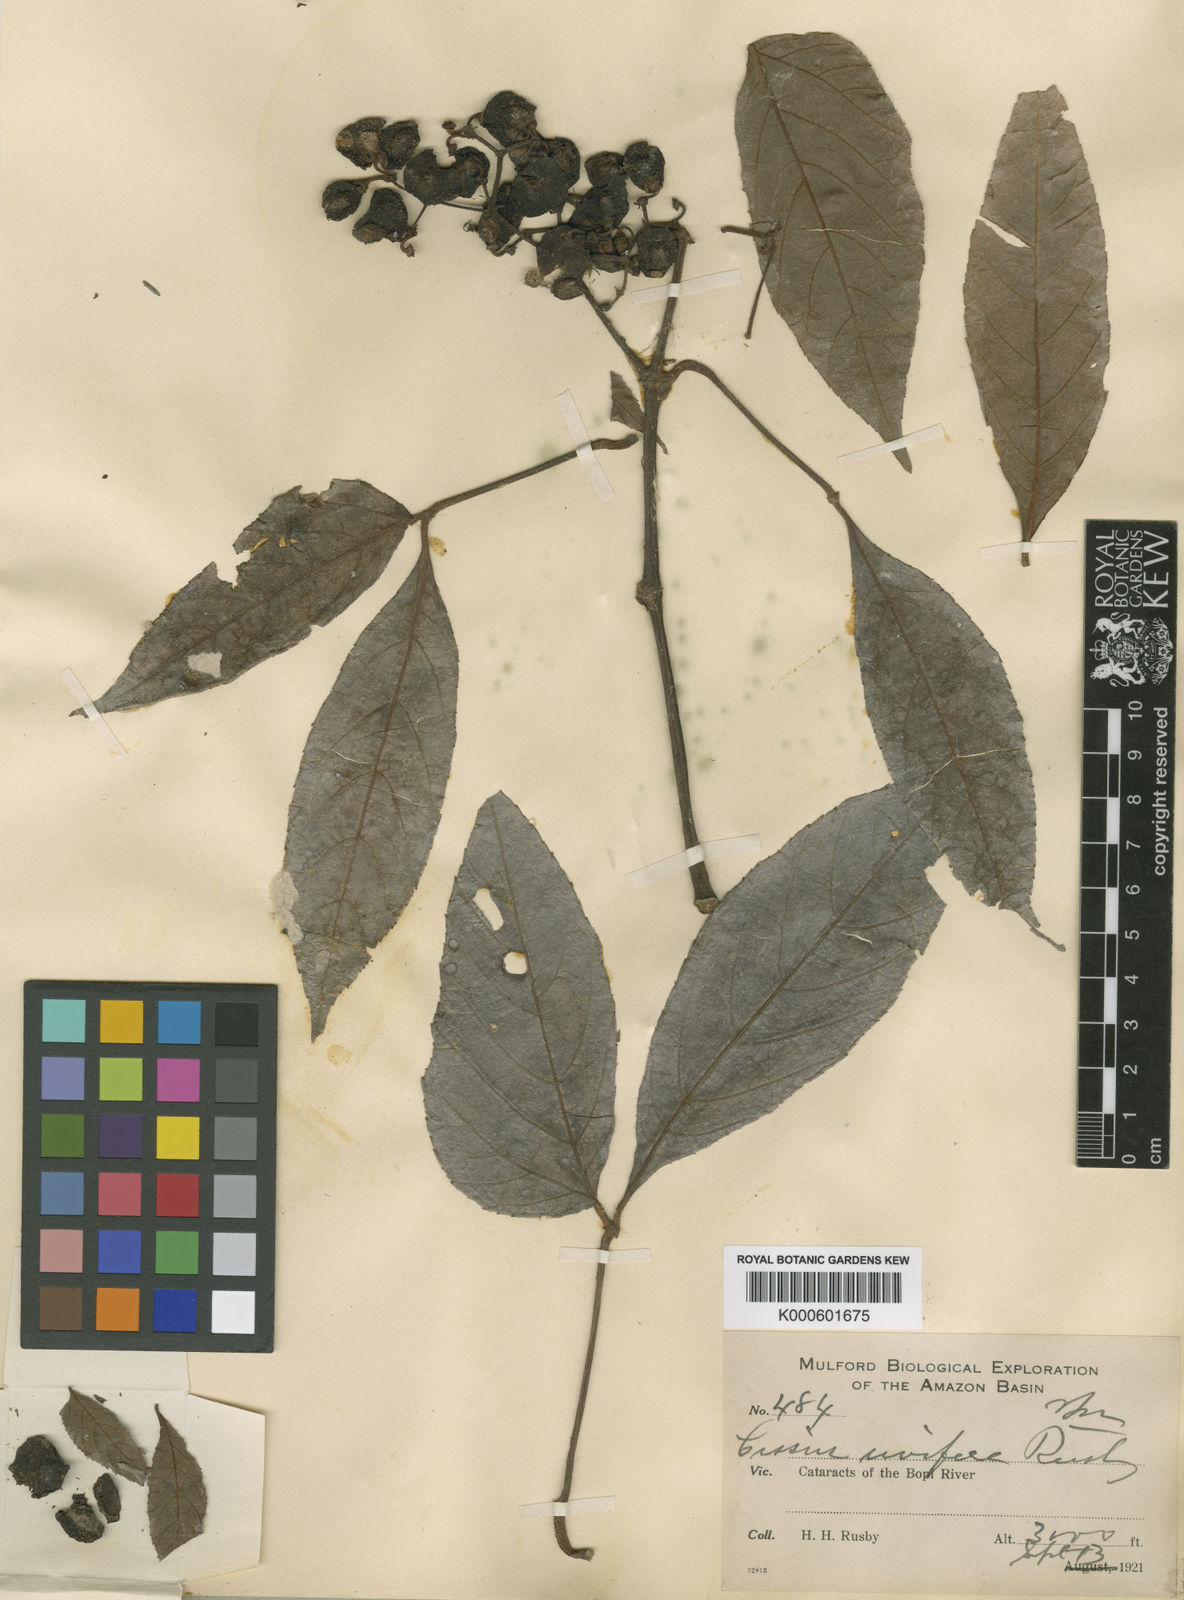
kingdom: Plantae
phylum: Tracheophyta
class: Magnoliopsida
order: Vitales
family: Vitaceae
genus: Cissus
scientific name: Cissus
